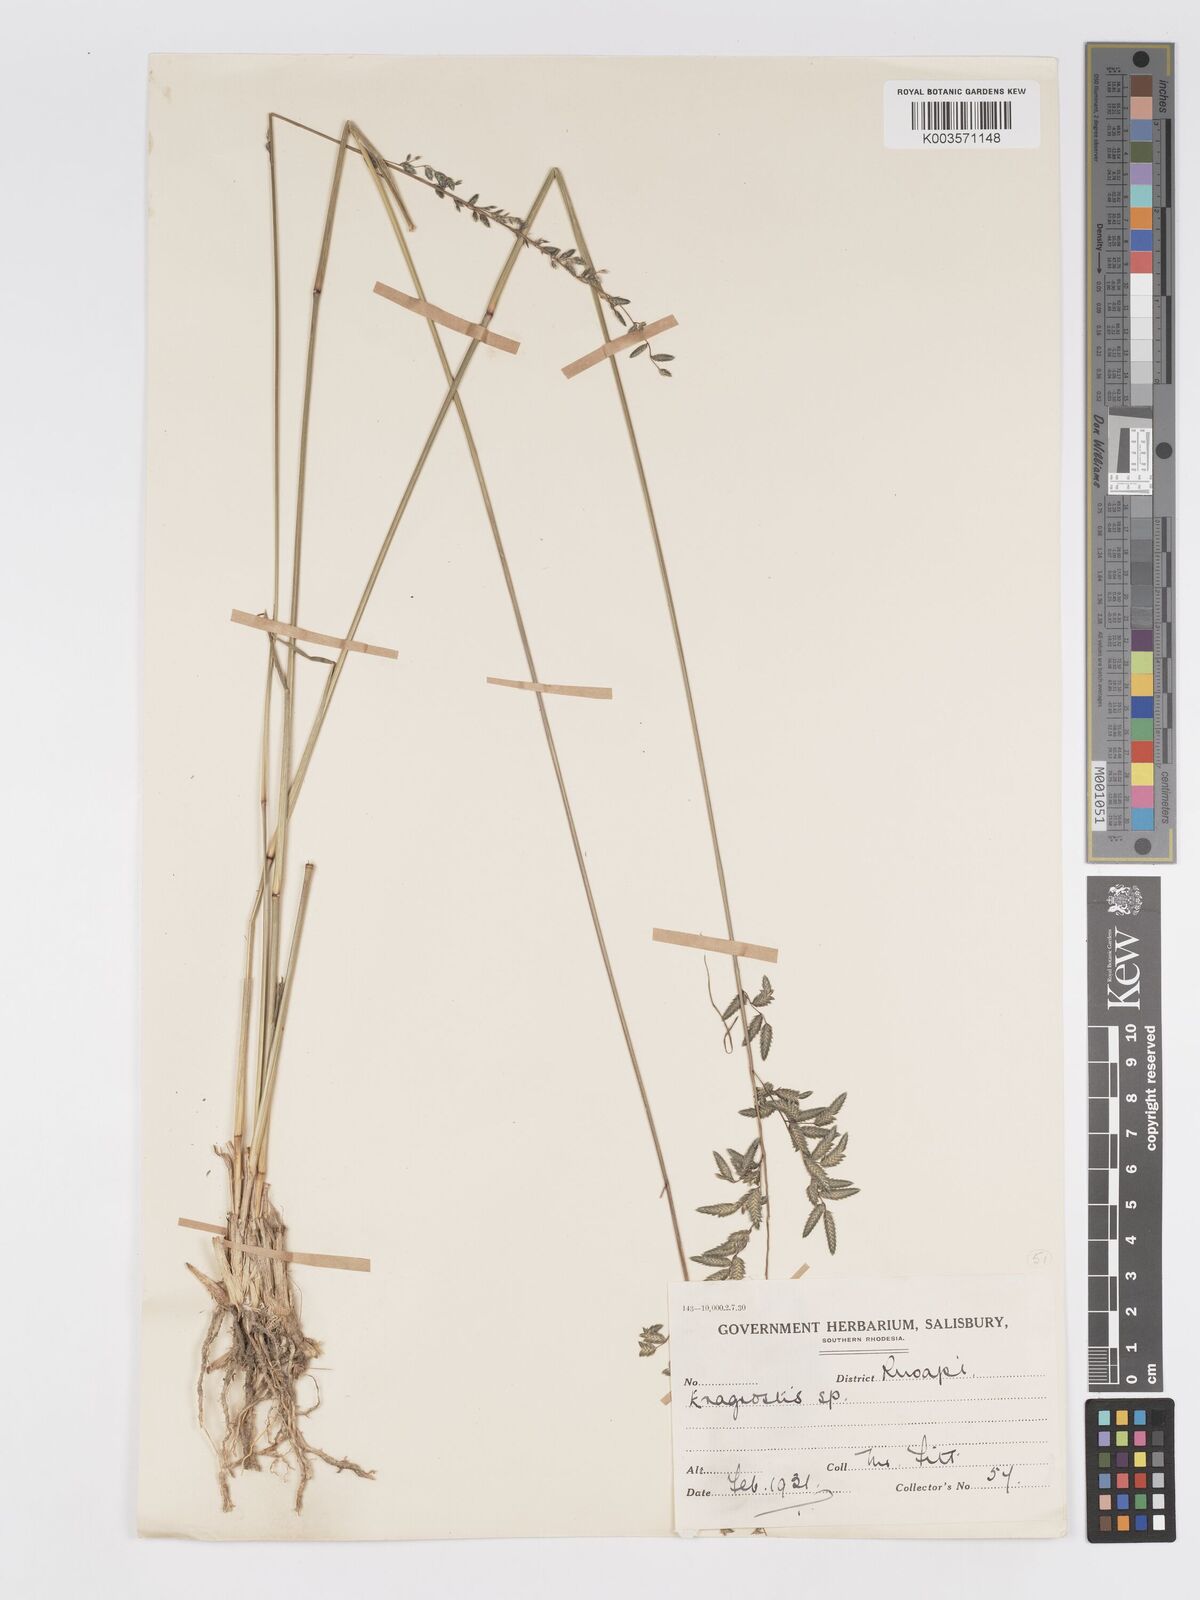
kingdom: Plantae
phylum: Tracheophyta
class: Liliopsida
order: Poales
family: Poaceae
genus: Eragrostis
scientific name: Eragrostis nindensis
